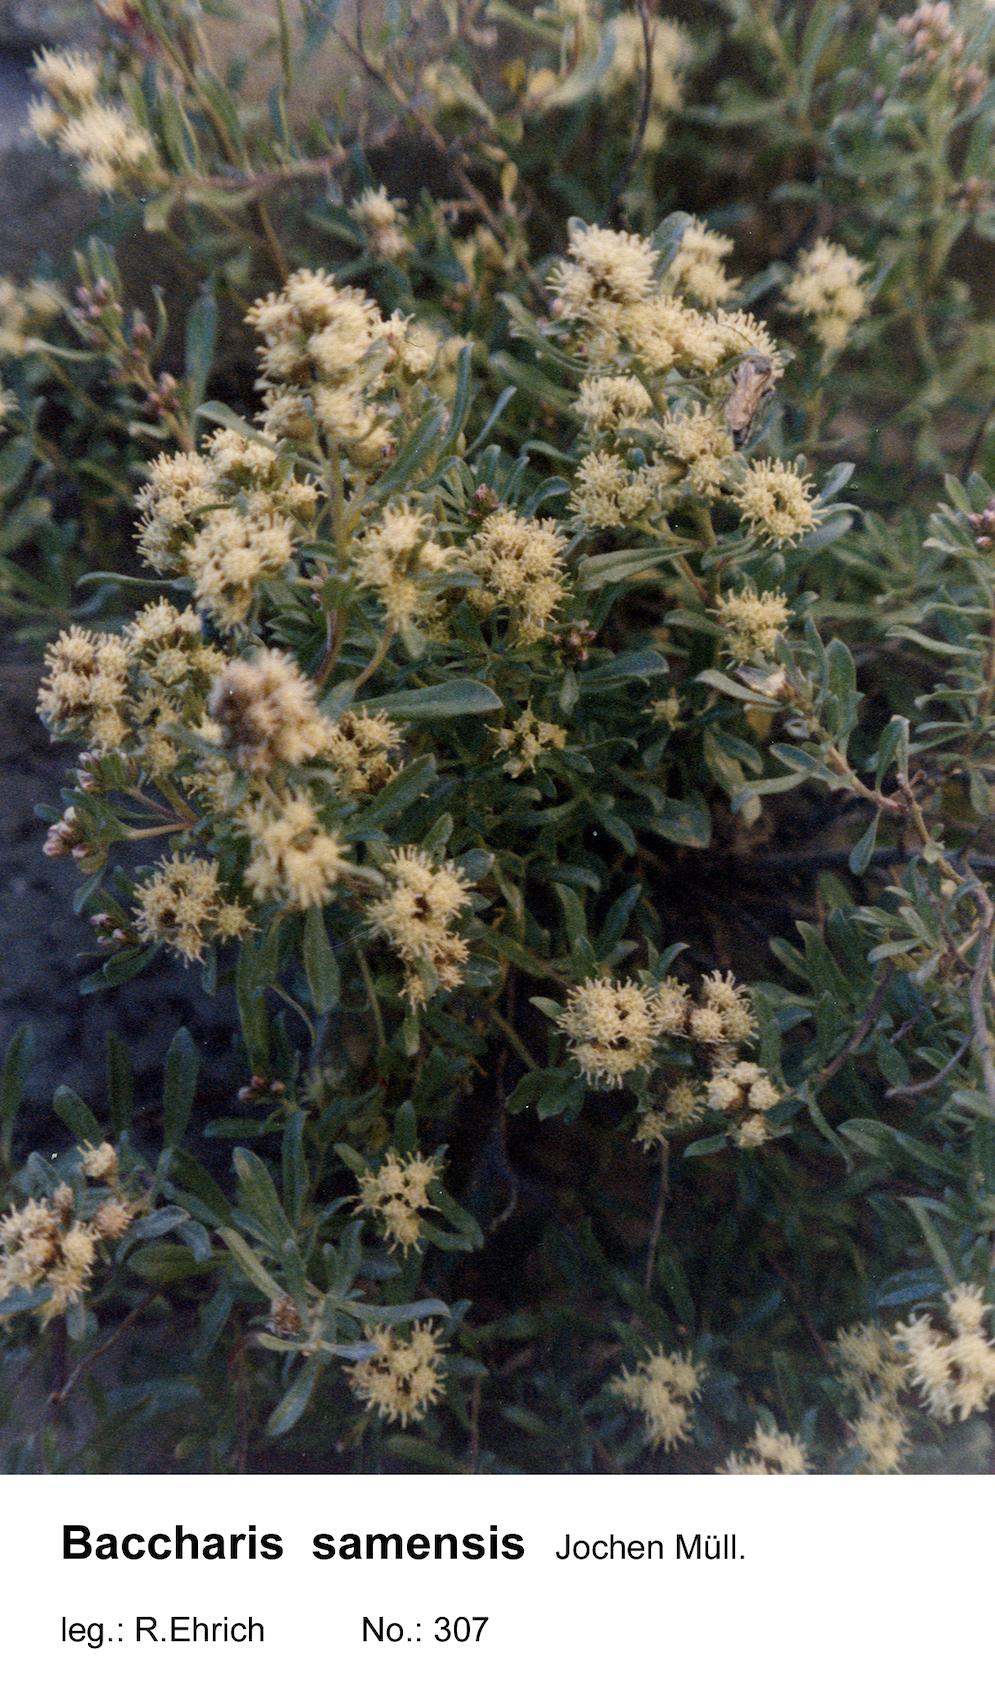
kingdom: Plantae
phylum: Tracheophyta
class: Magnoliopsida
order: Asterales
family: Asteraceae
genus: Baccharis
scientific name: Baccharis samensis
